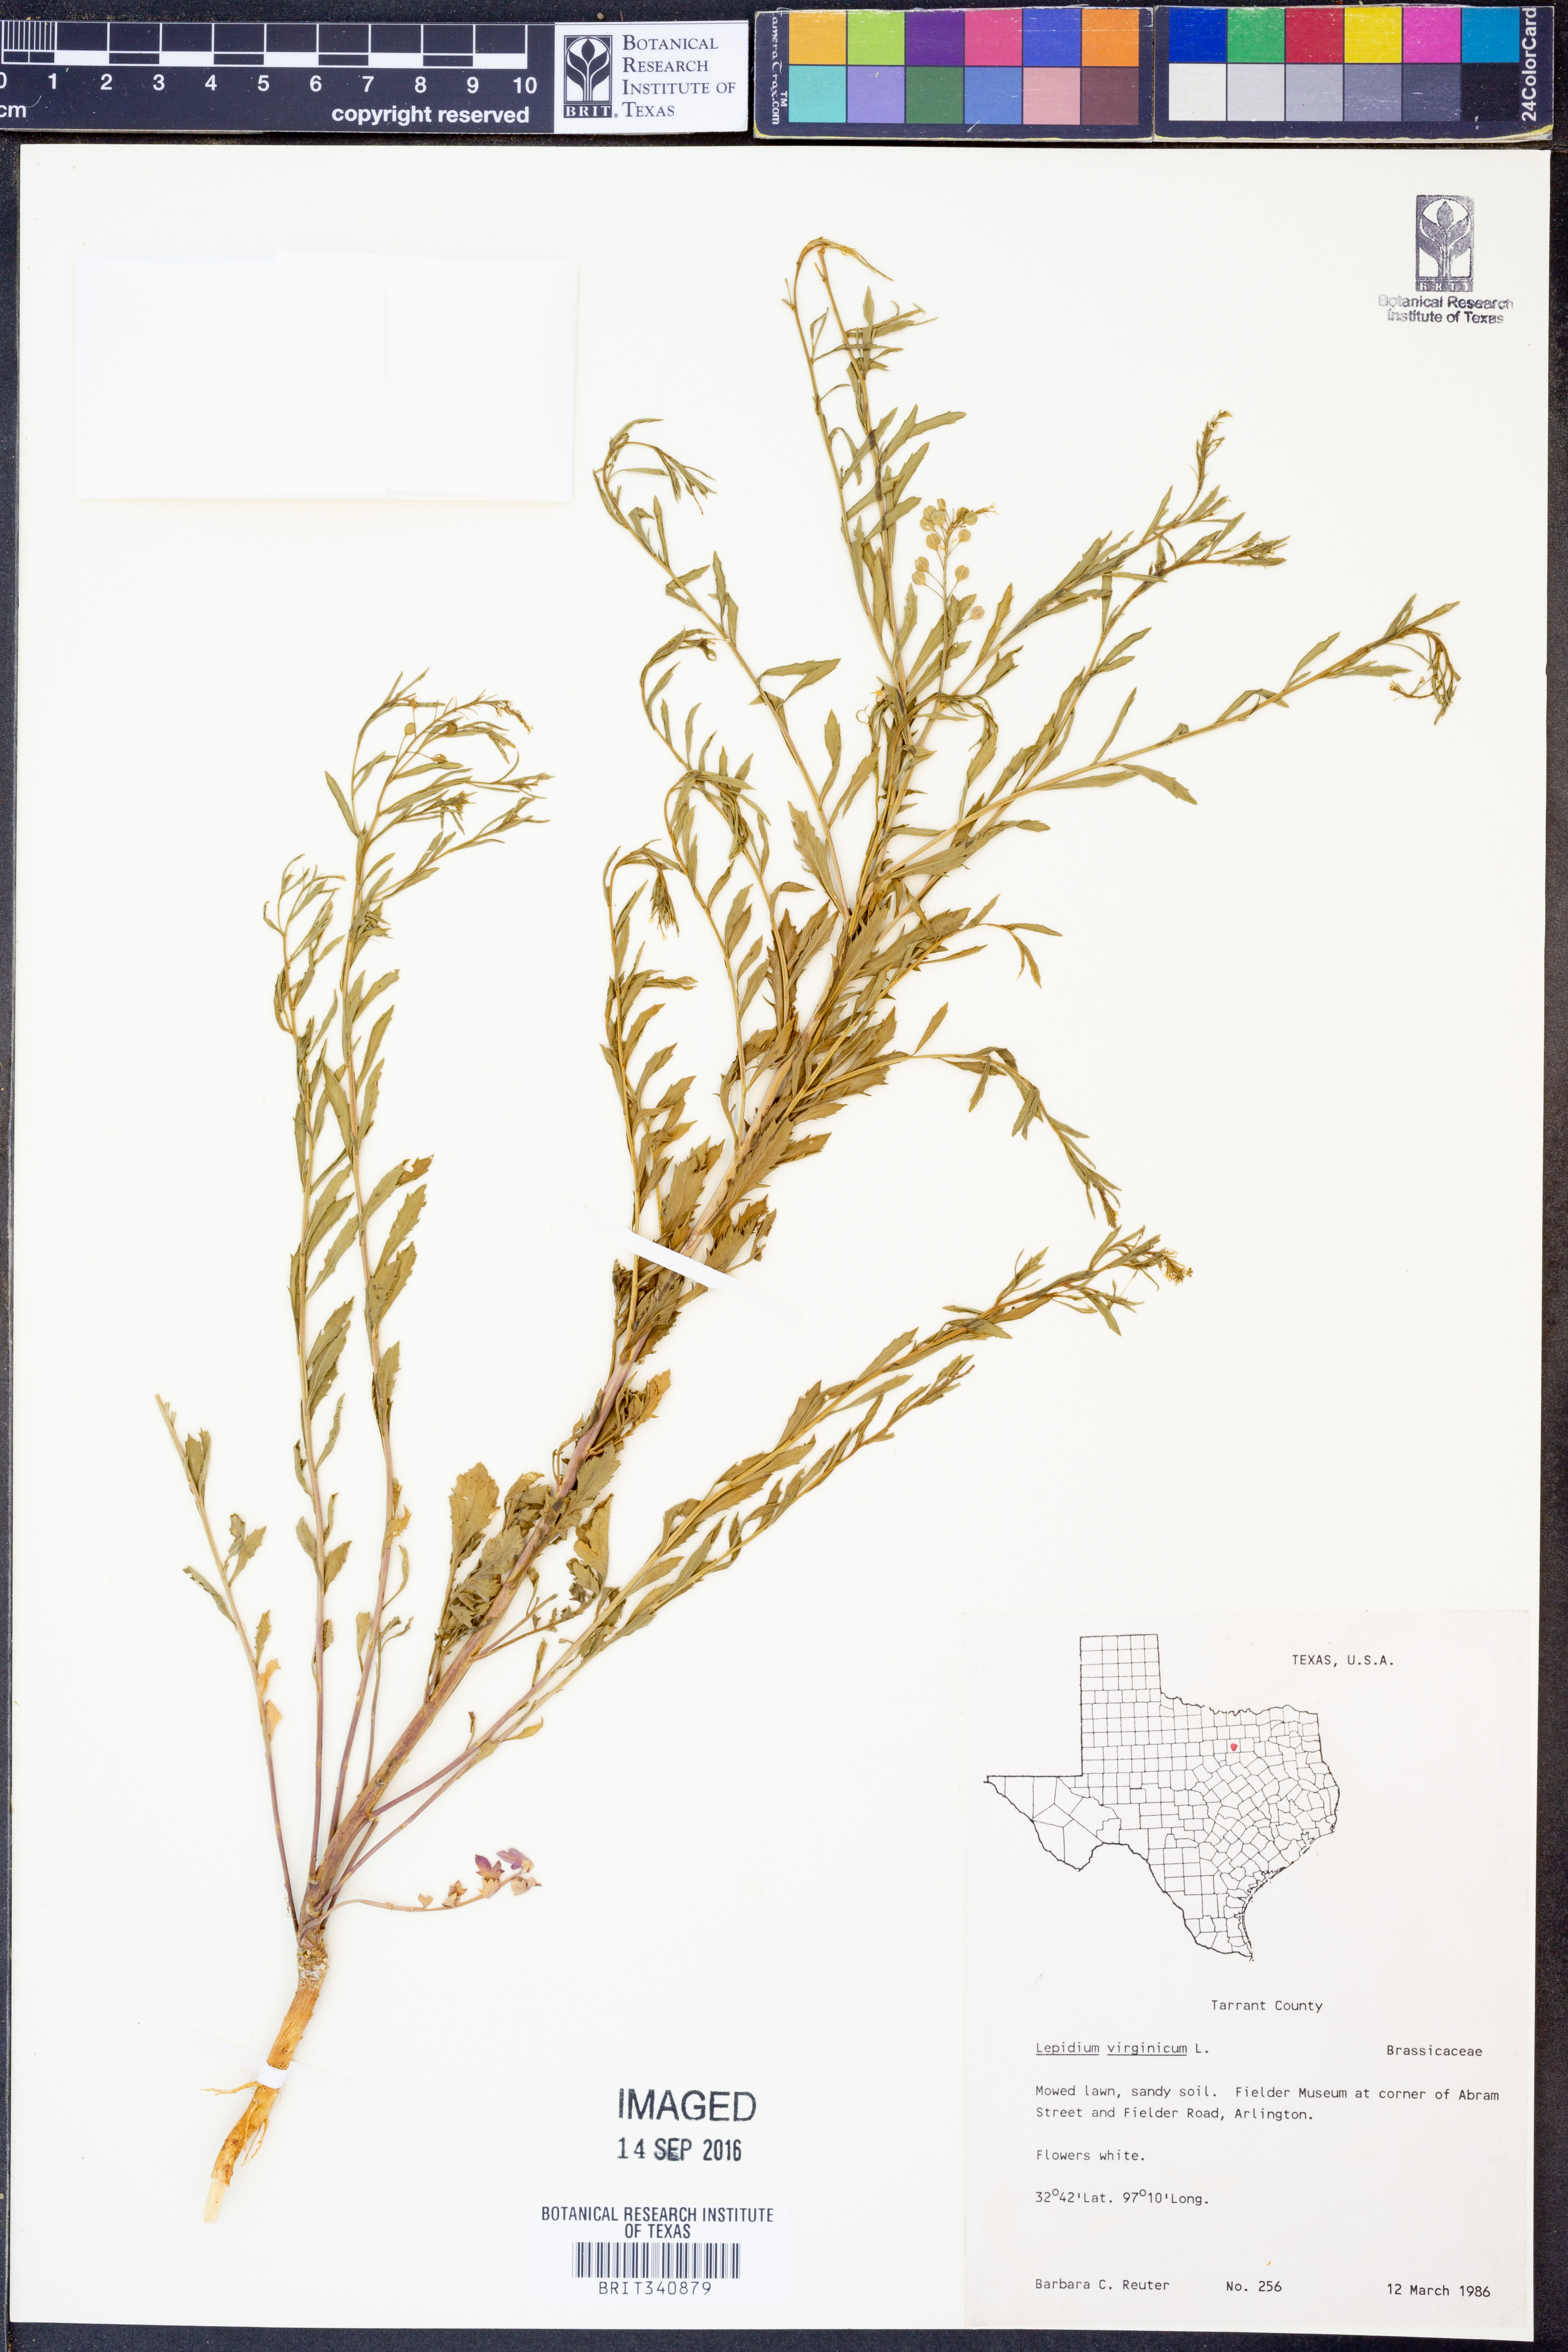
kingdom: Plantae
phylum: Tracheophyta
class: Magnoliopsida
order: Brassicales
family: Brassicaceae
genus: Lepidium
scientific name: Lepidium virginicum
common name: Least pepperwort
